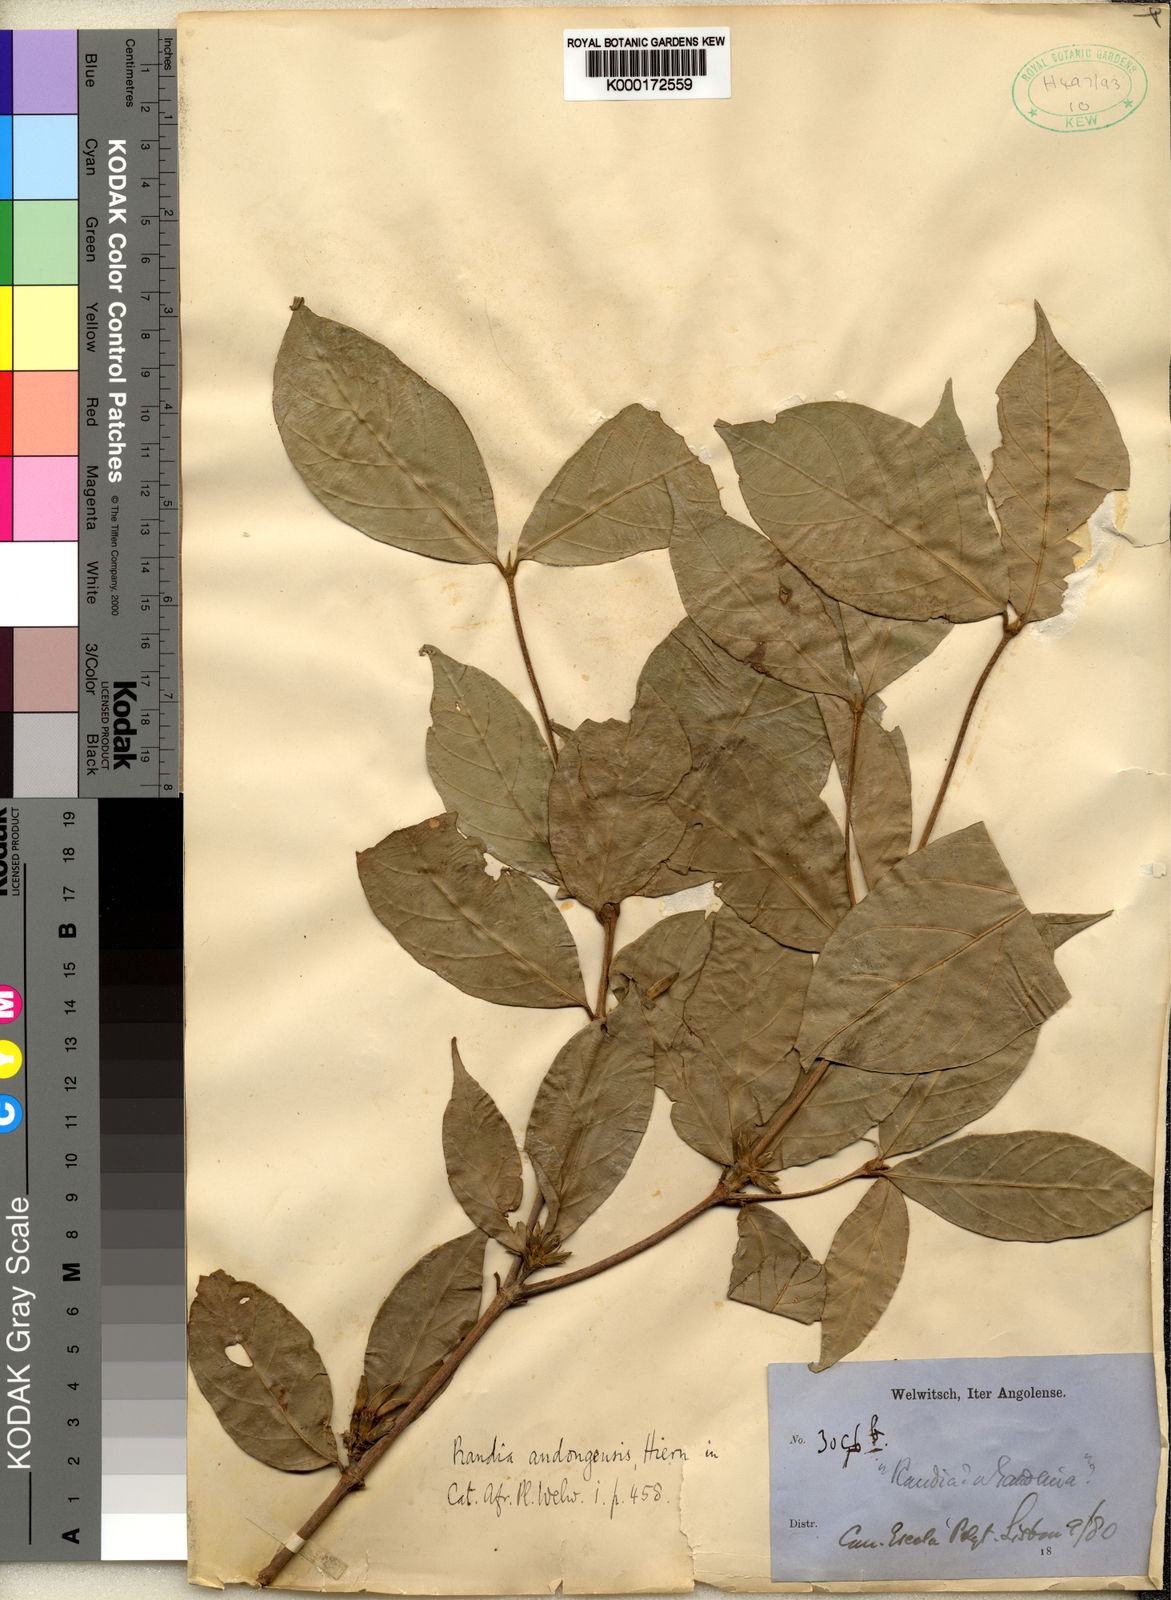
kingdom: Plantae
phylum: Tracheophyta
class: Magnoliopsida
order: Gentianales
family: Rubiaceae
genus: Aulacocalyx
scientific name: Aulacocalyx jasminiflora
